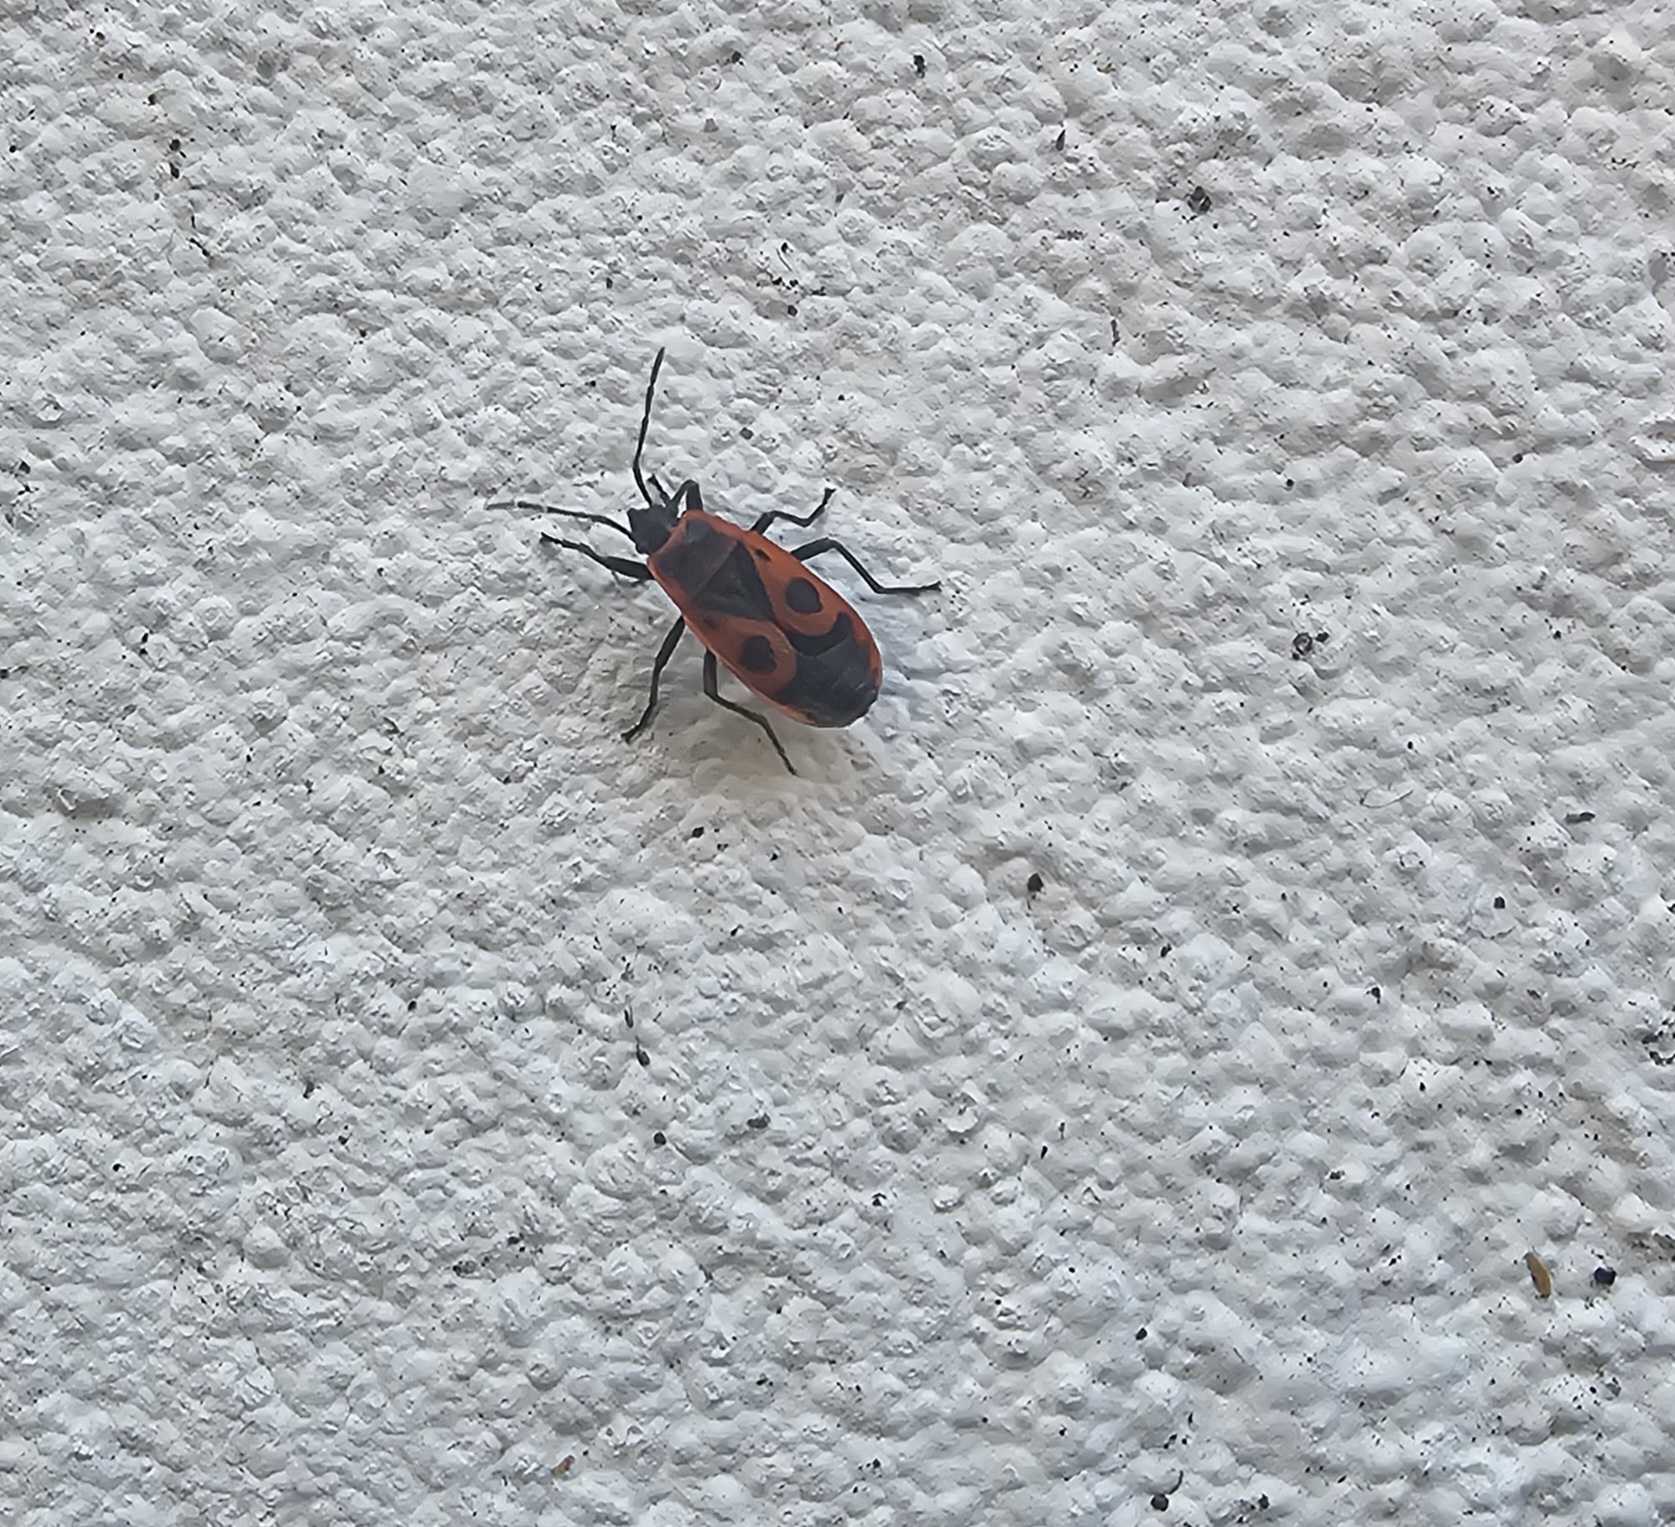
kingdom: Animalia
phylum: Arthropoda
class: Insecta
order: Hemiptera
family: Pyrrhocoridae
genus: Pyrrhocoris
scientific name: Pyrrhocoris apterus
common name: Ildtæge
